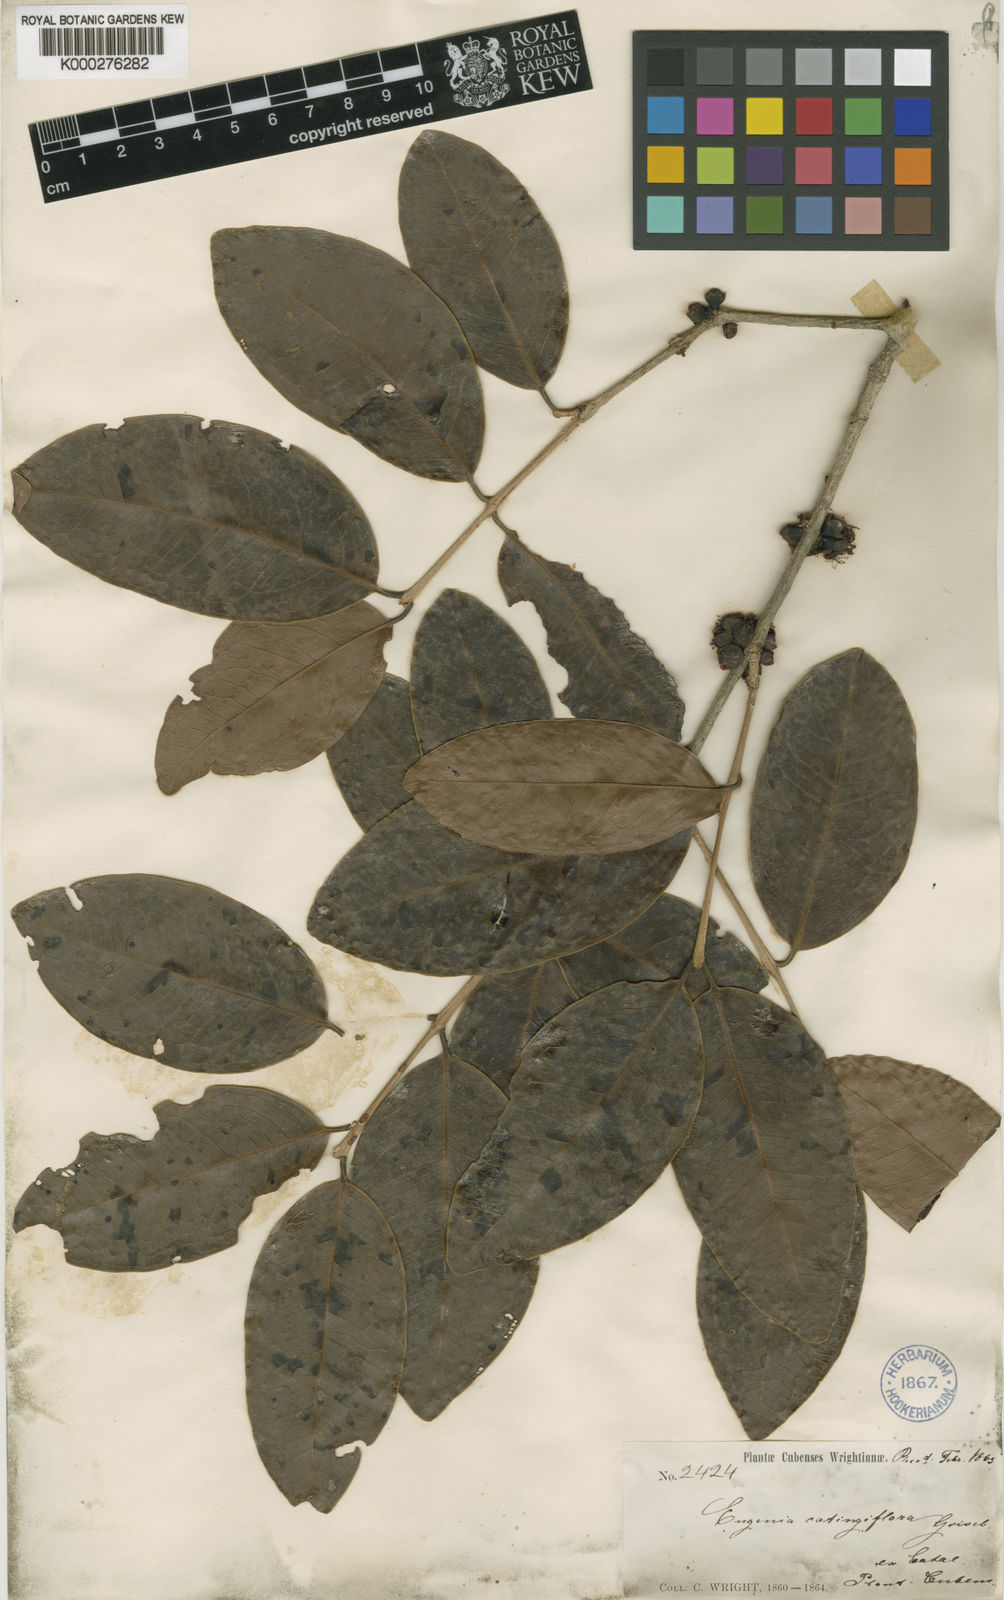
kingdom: Plantae
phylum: Tracheophyta
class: Magnoliopsida
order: Myrtales
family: Myrtaceae
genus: Eugenia
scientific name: Eugenia catingiflora
